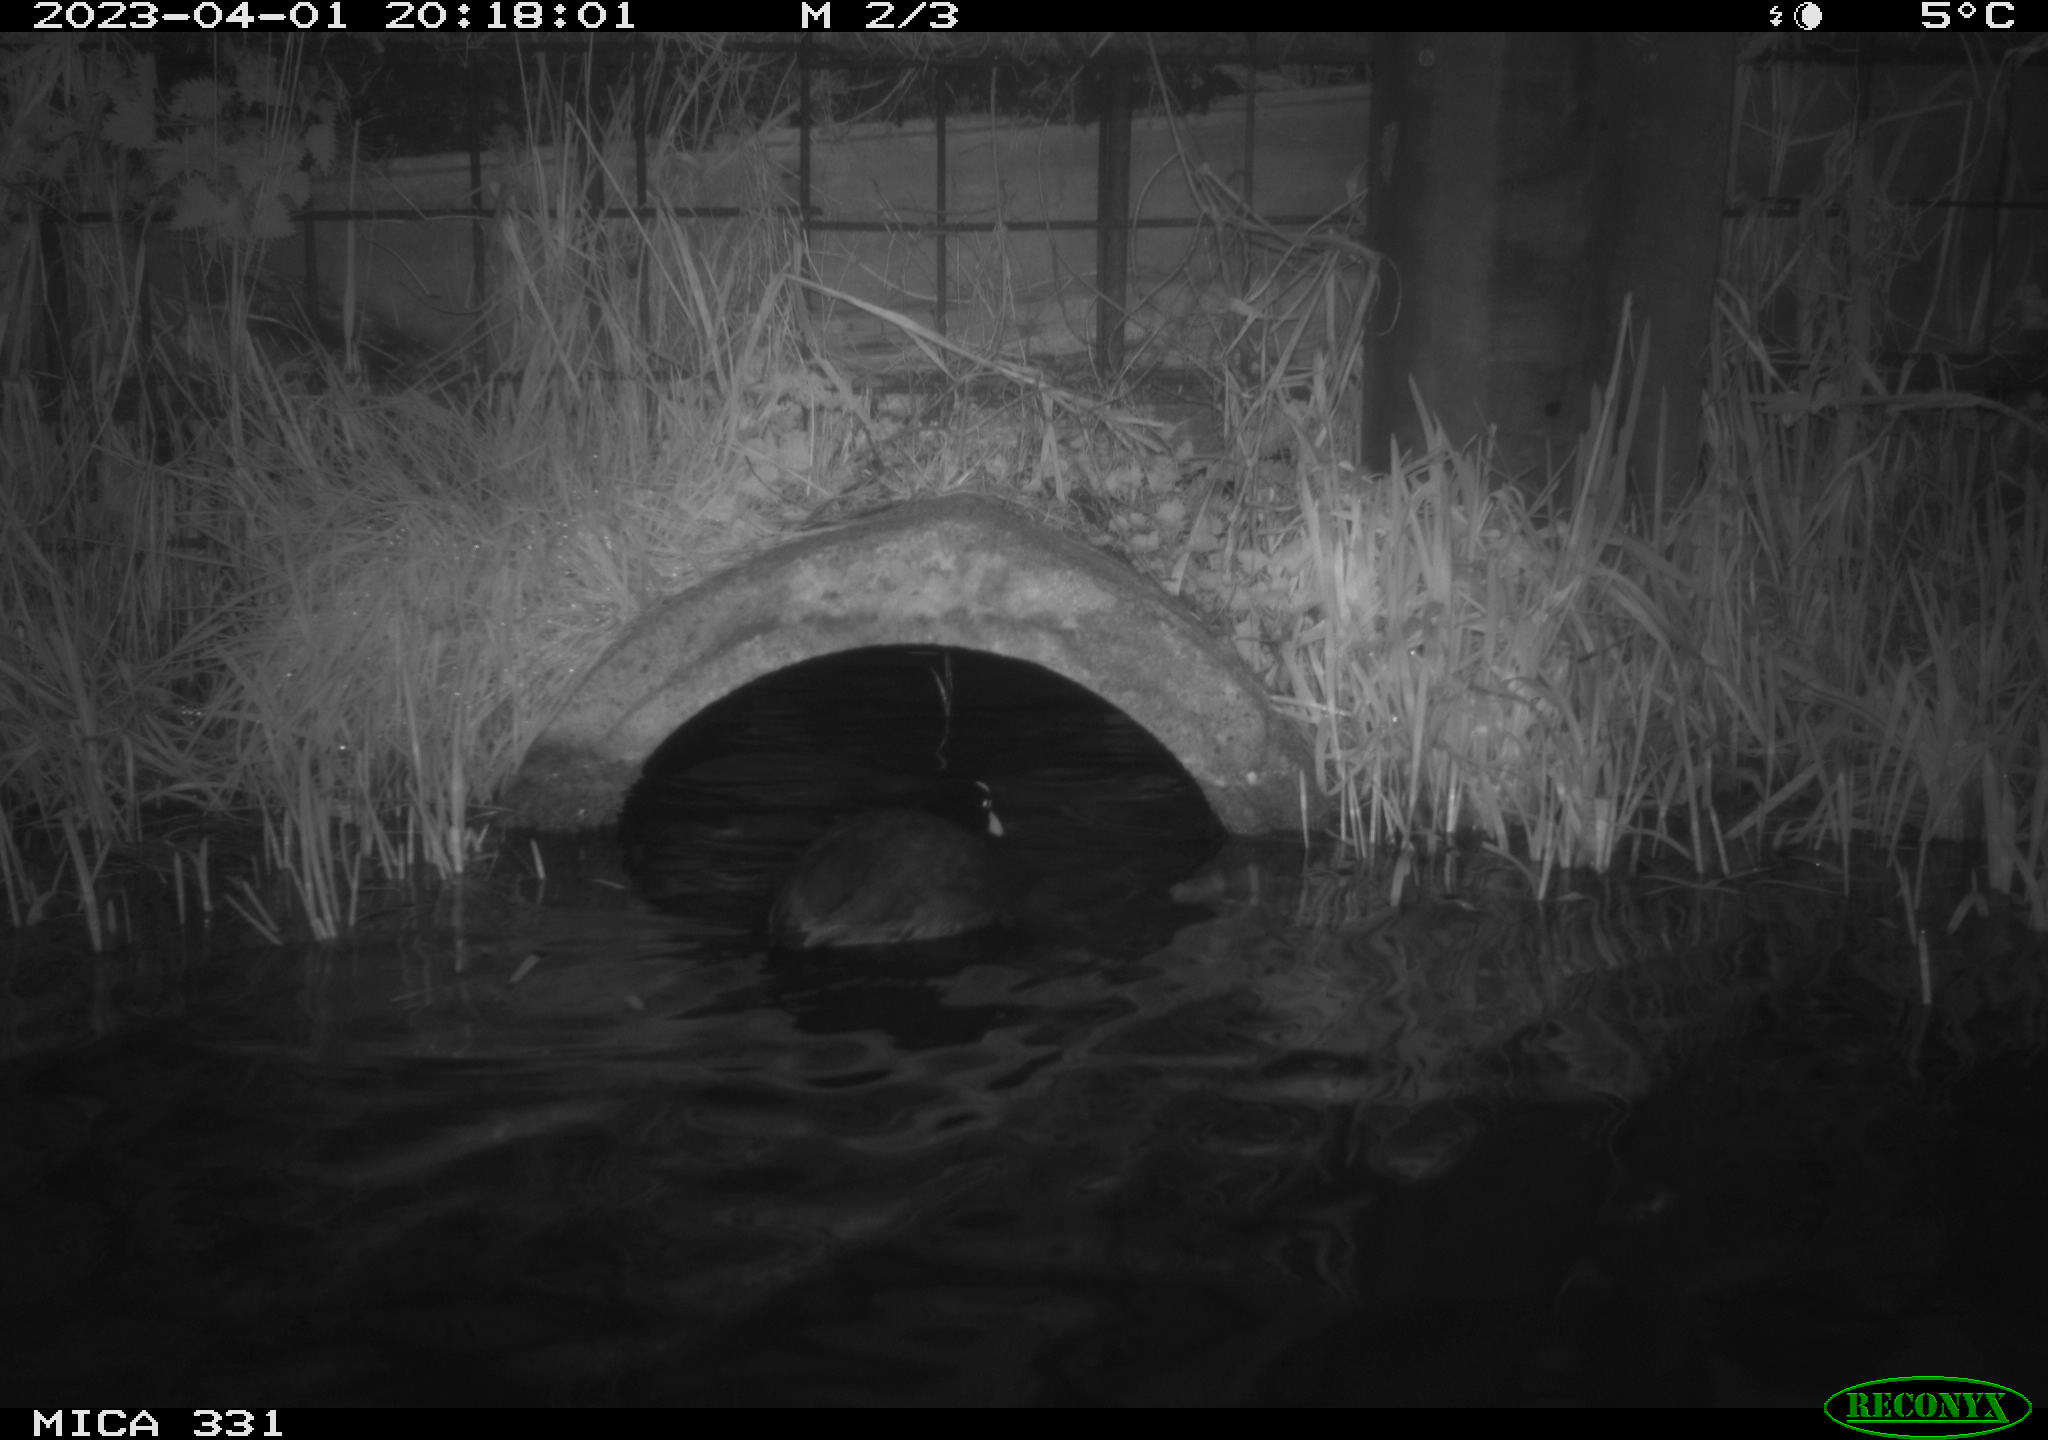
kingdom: Animalia
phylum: Chordata
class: Aves
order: Anseriformes
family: Anatidae
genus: Anas
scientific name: Anas
